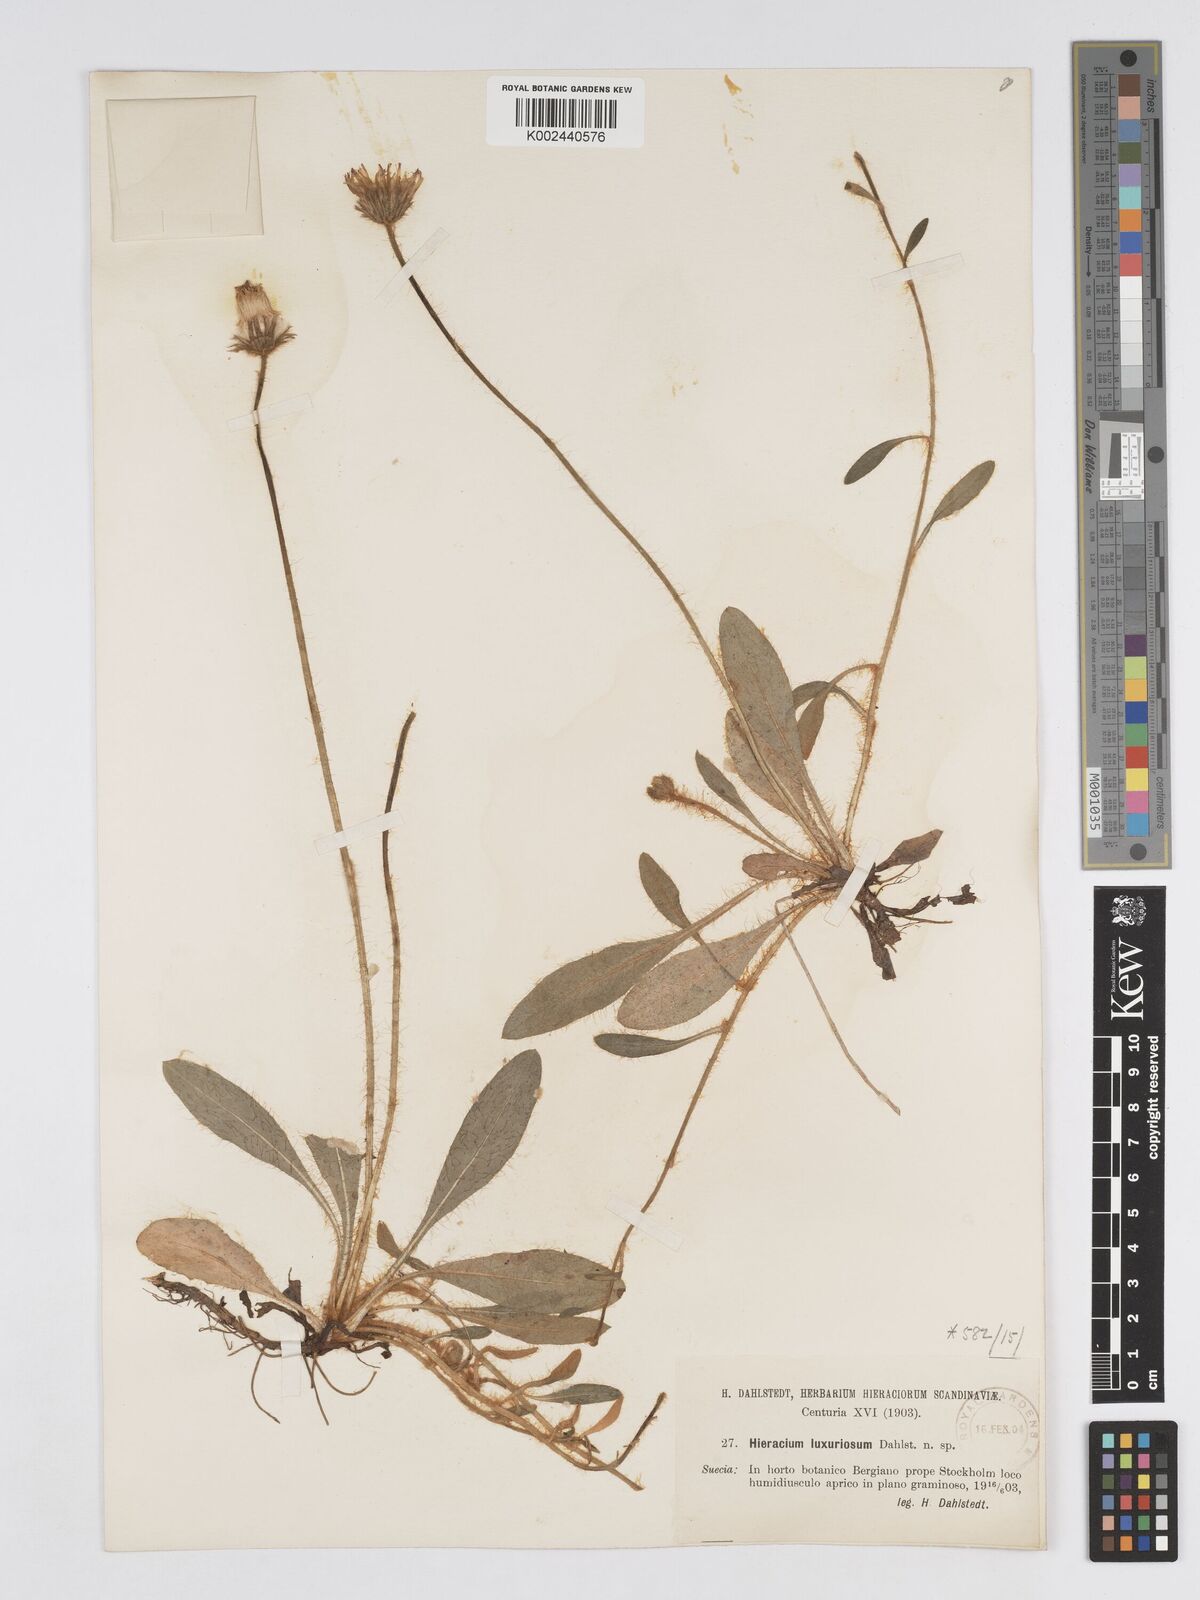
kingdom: Plantae
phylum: Tracheophyta
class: Magnoliopsida
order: Asterales
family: Asteraceae
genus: Pilosella
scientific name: Pilosella longisquama
